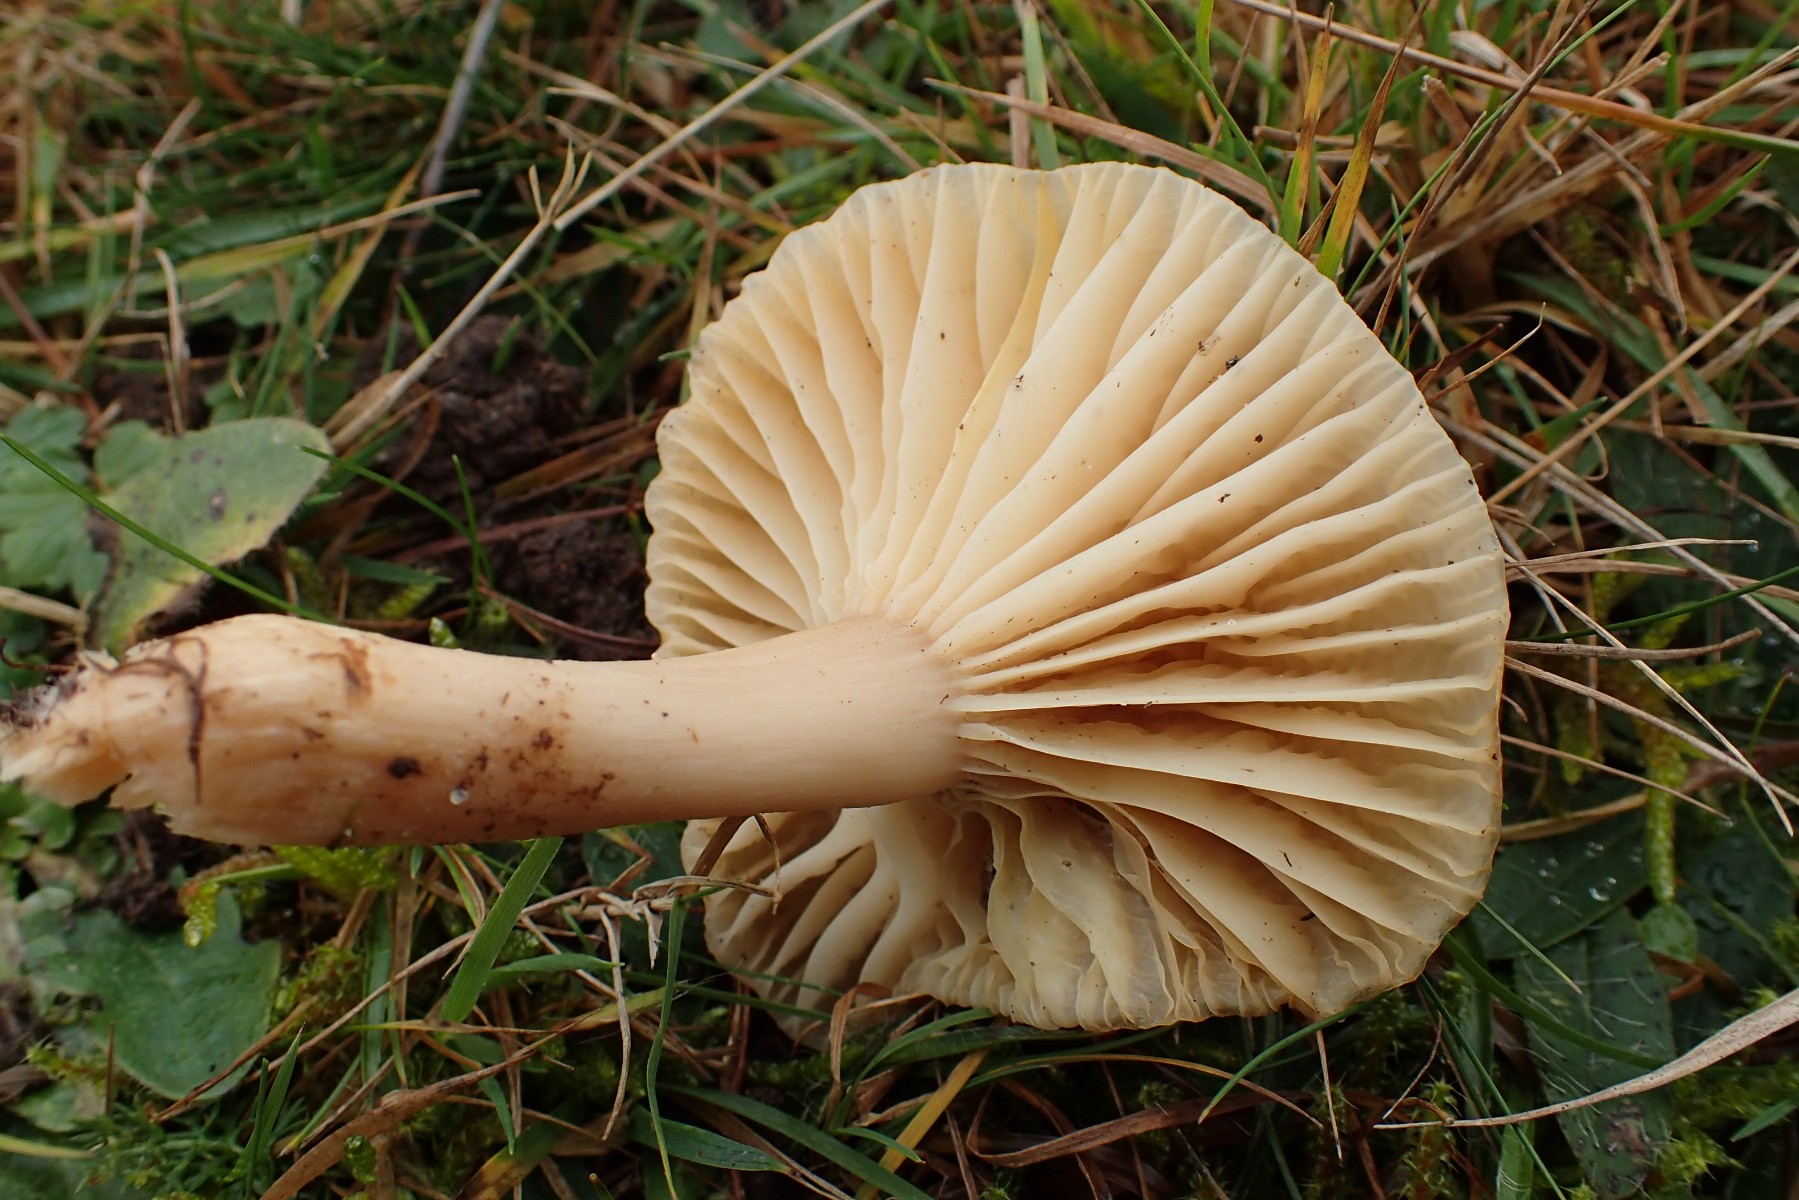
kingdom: Fungi
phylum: Basidiomycota
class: Agaricomycetes
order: Agaricales
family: Hygrophoraceae
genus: Cuphophyllus
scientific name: Cuphophyllus pratensis
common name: eng-vokshat
